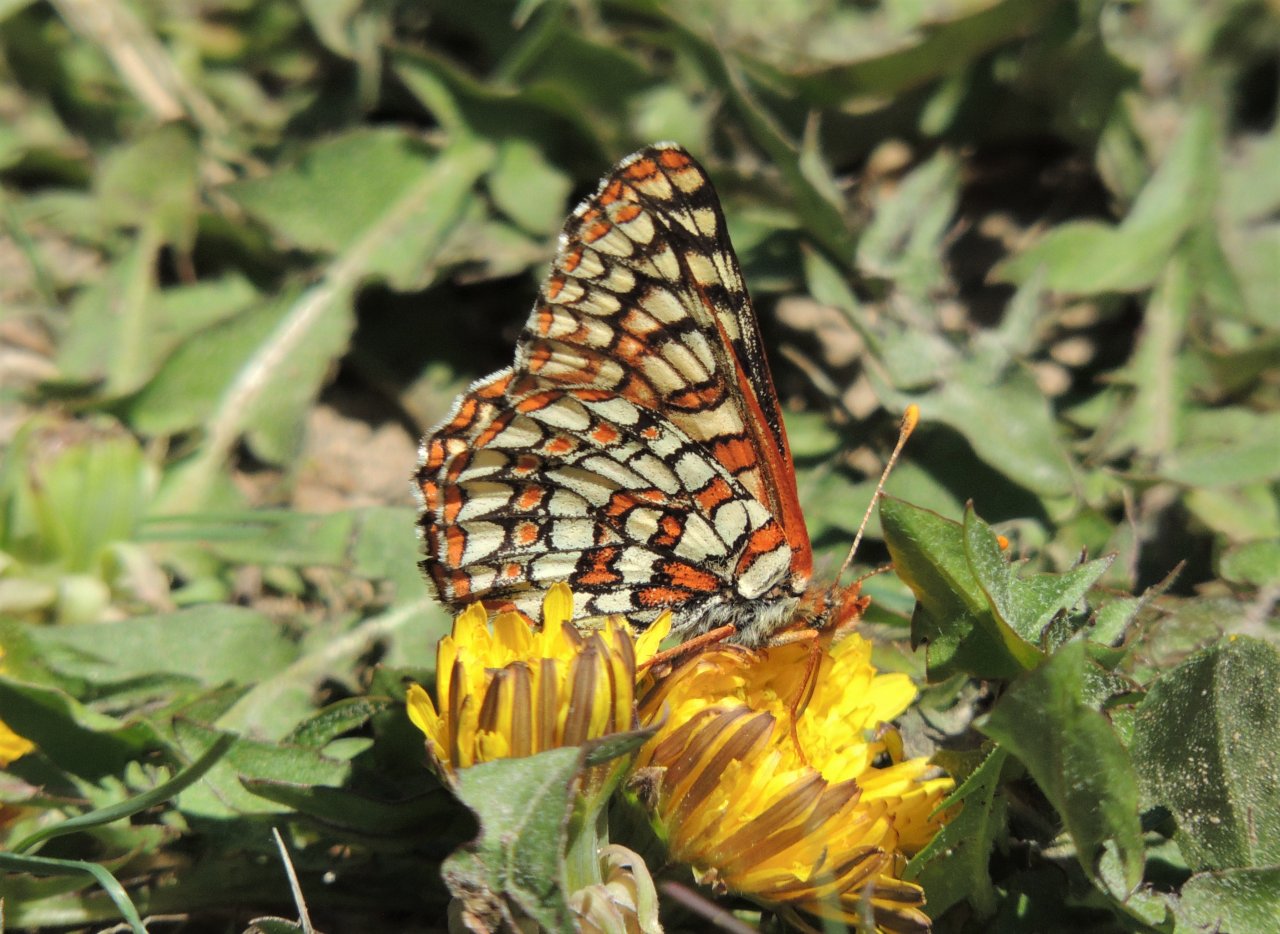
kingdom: Animalia
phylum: Arthropoda
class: Insecta
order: Lepidoptera
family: Nymphalidae
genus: Occidryas
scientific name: Occidryas anicia
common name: Anicia Checkerspot
